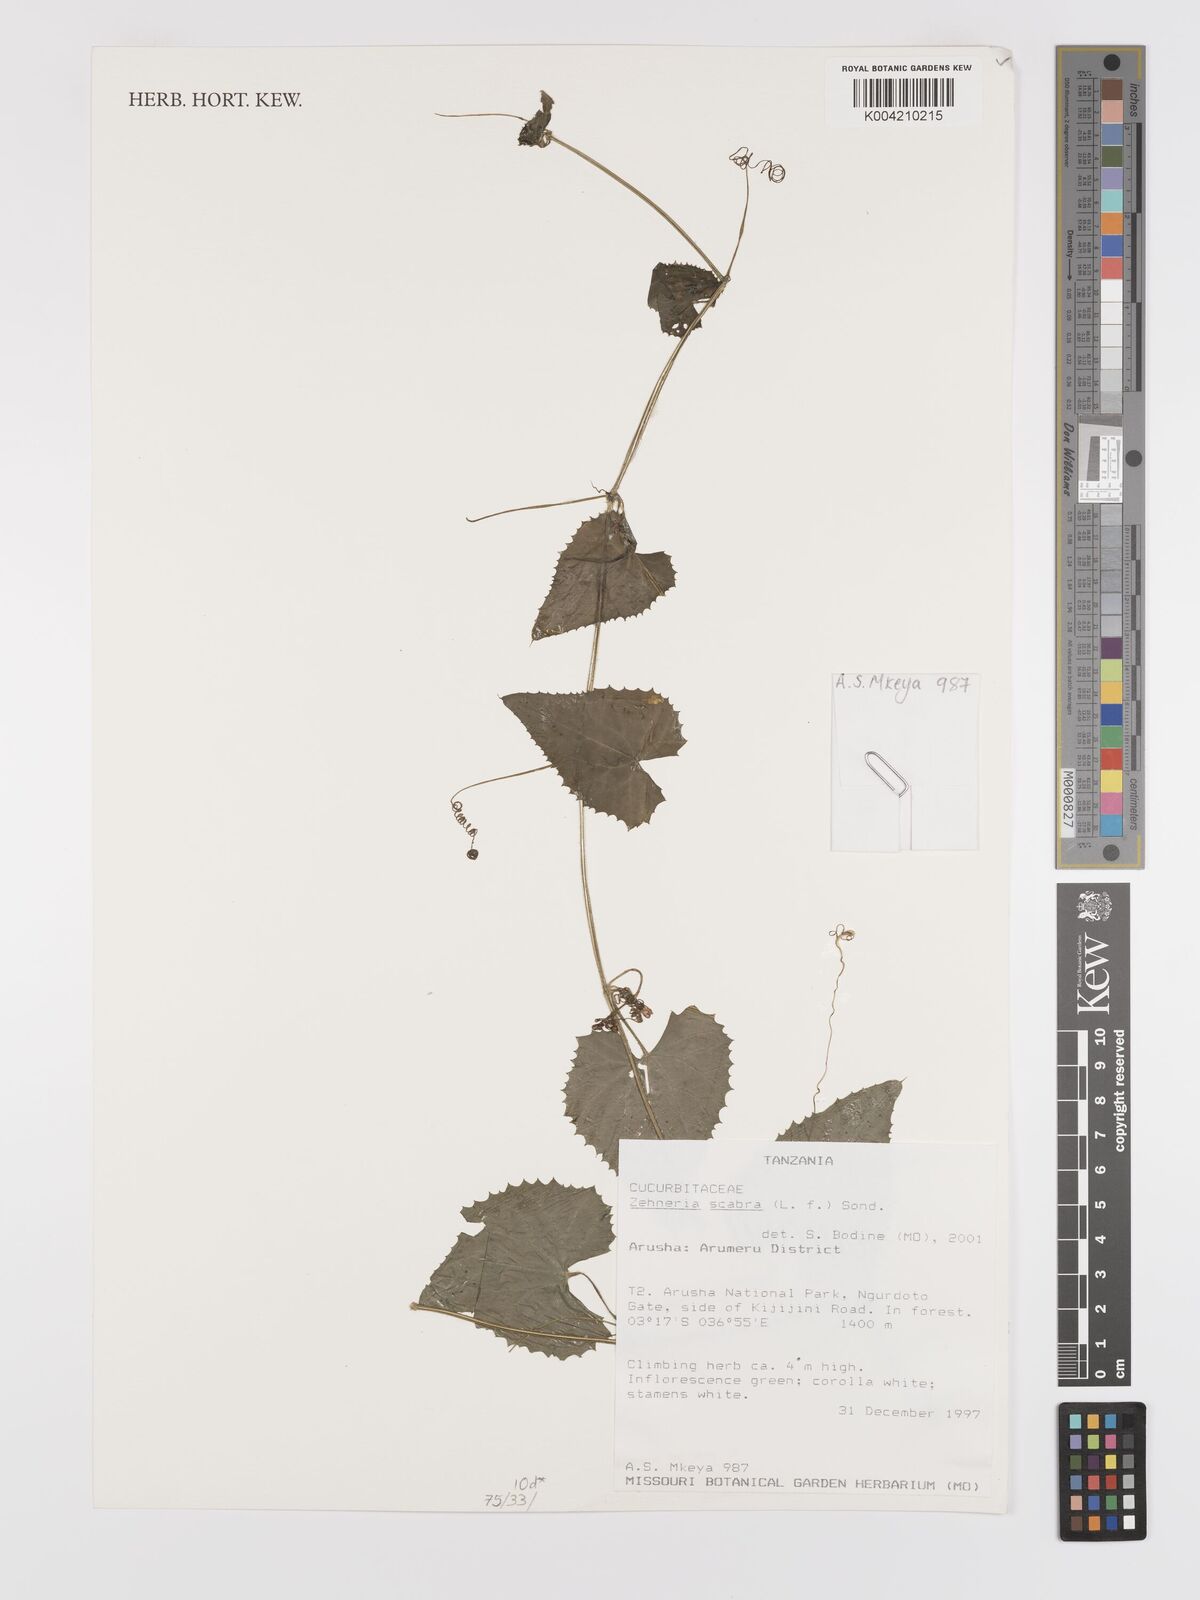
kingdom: Plantae
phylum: Tracheophyta
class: Magnoliopsida
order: Cucurbitales
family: Cucurbitaceae
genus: Zehneria
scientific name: Zehneria scabra
